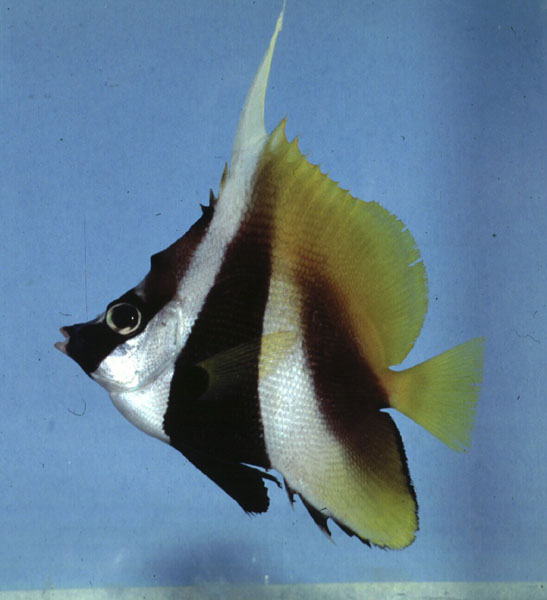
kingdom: Animalia
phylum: Chordata
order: Perciformes
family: Chaetodontidae
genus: Heniochus
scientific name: Heniochus monoceros
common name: Masked bannerfish
